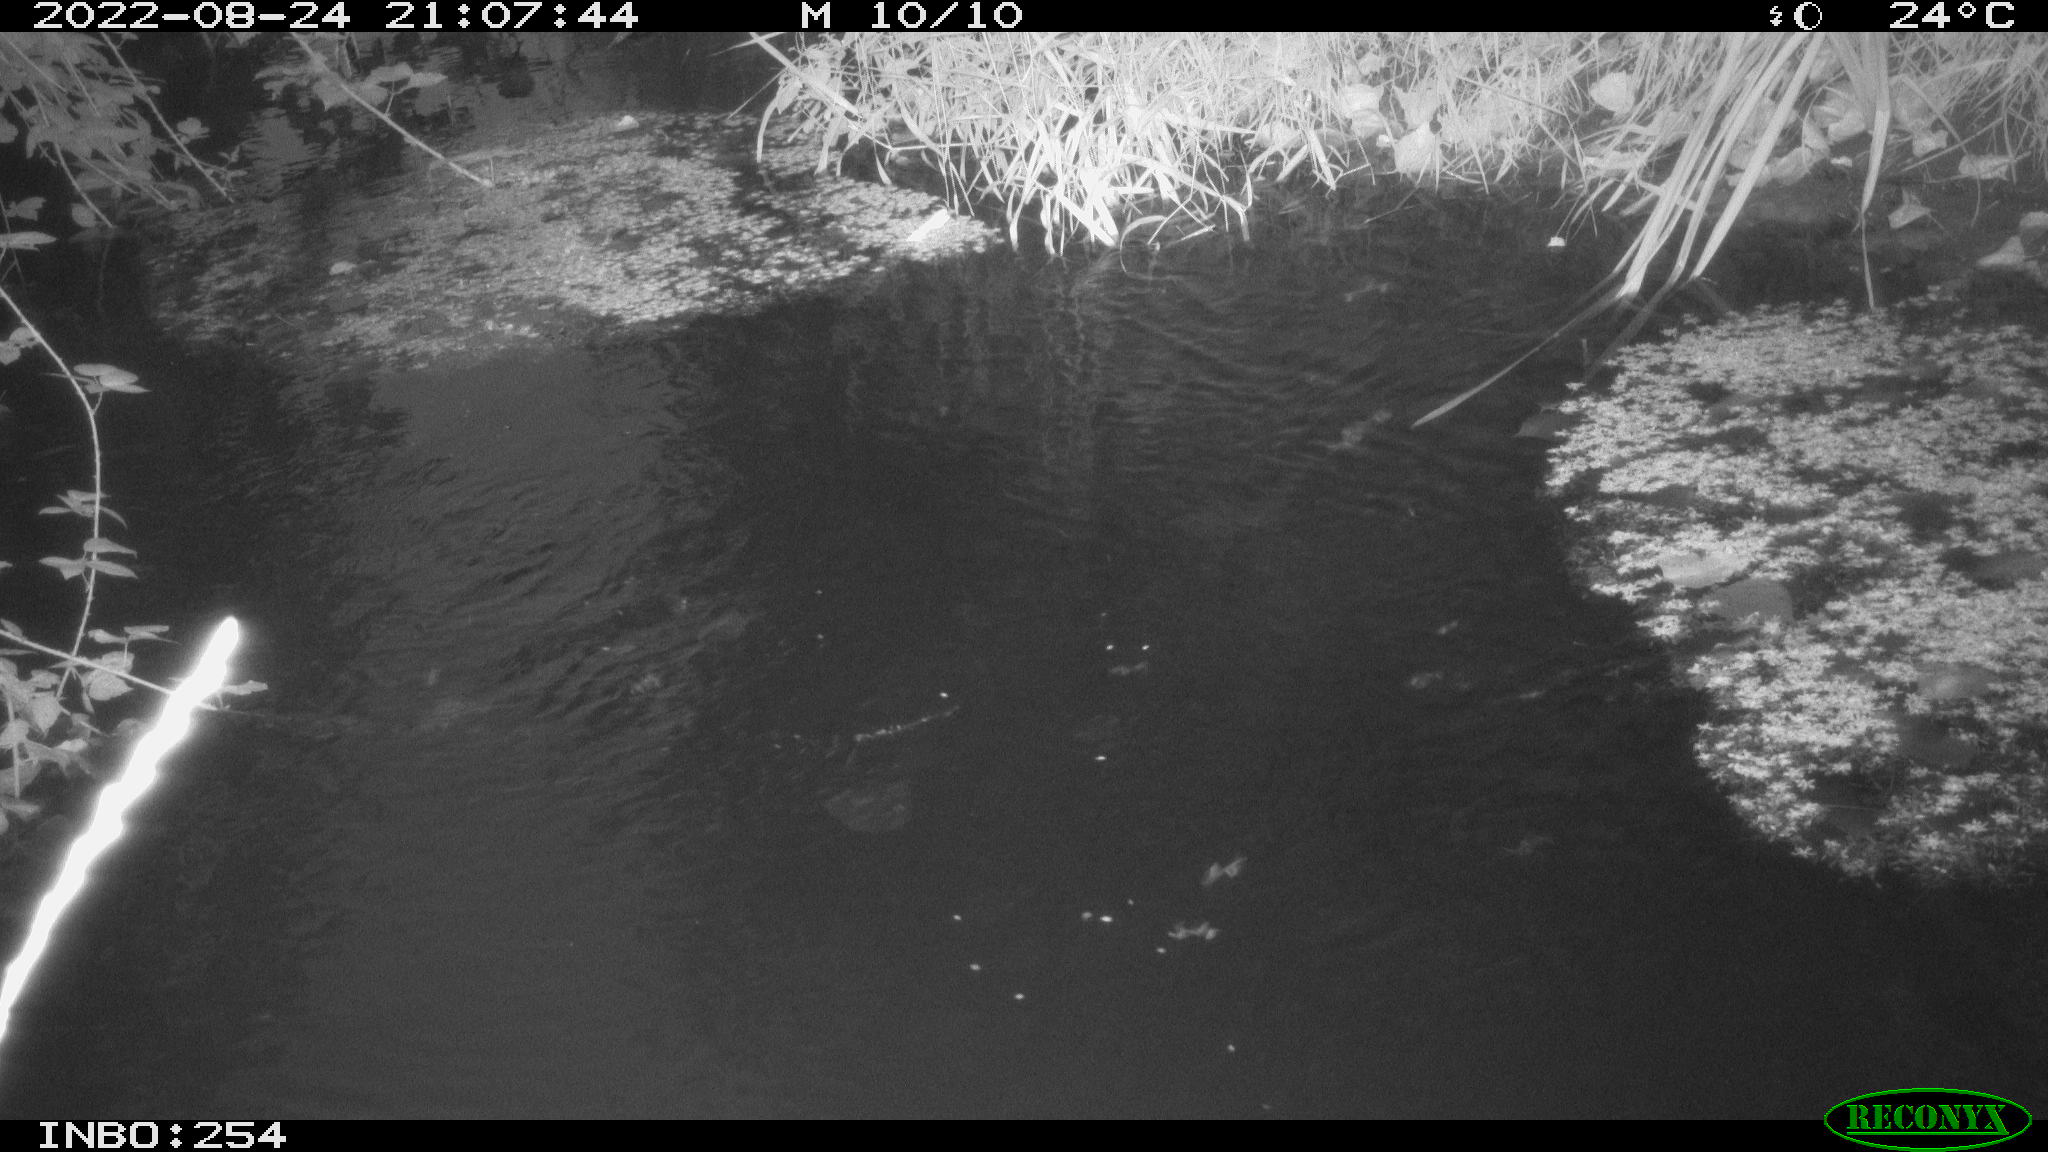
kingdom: Animalia
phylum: Chordata
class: Aves
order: Anseriformes
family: Anatidae
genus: Anas
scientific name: Anas platyrhynchos
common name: Mallard
